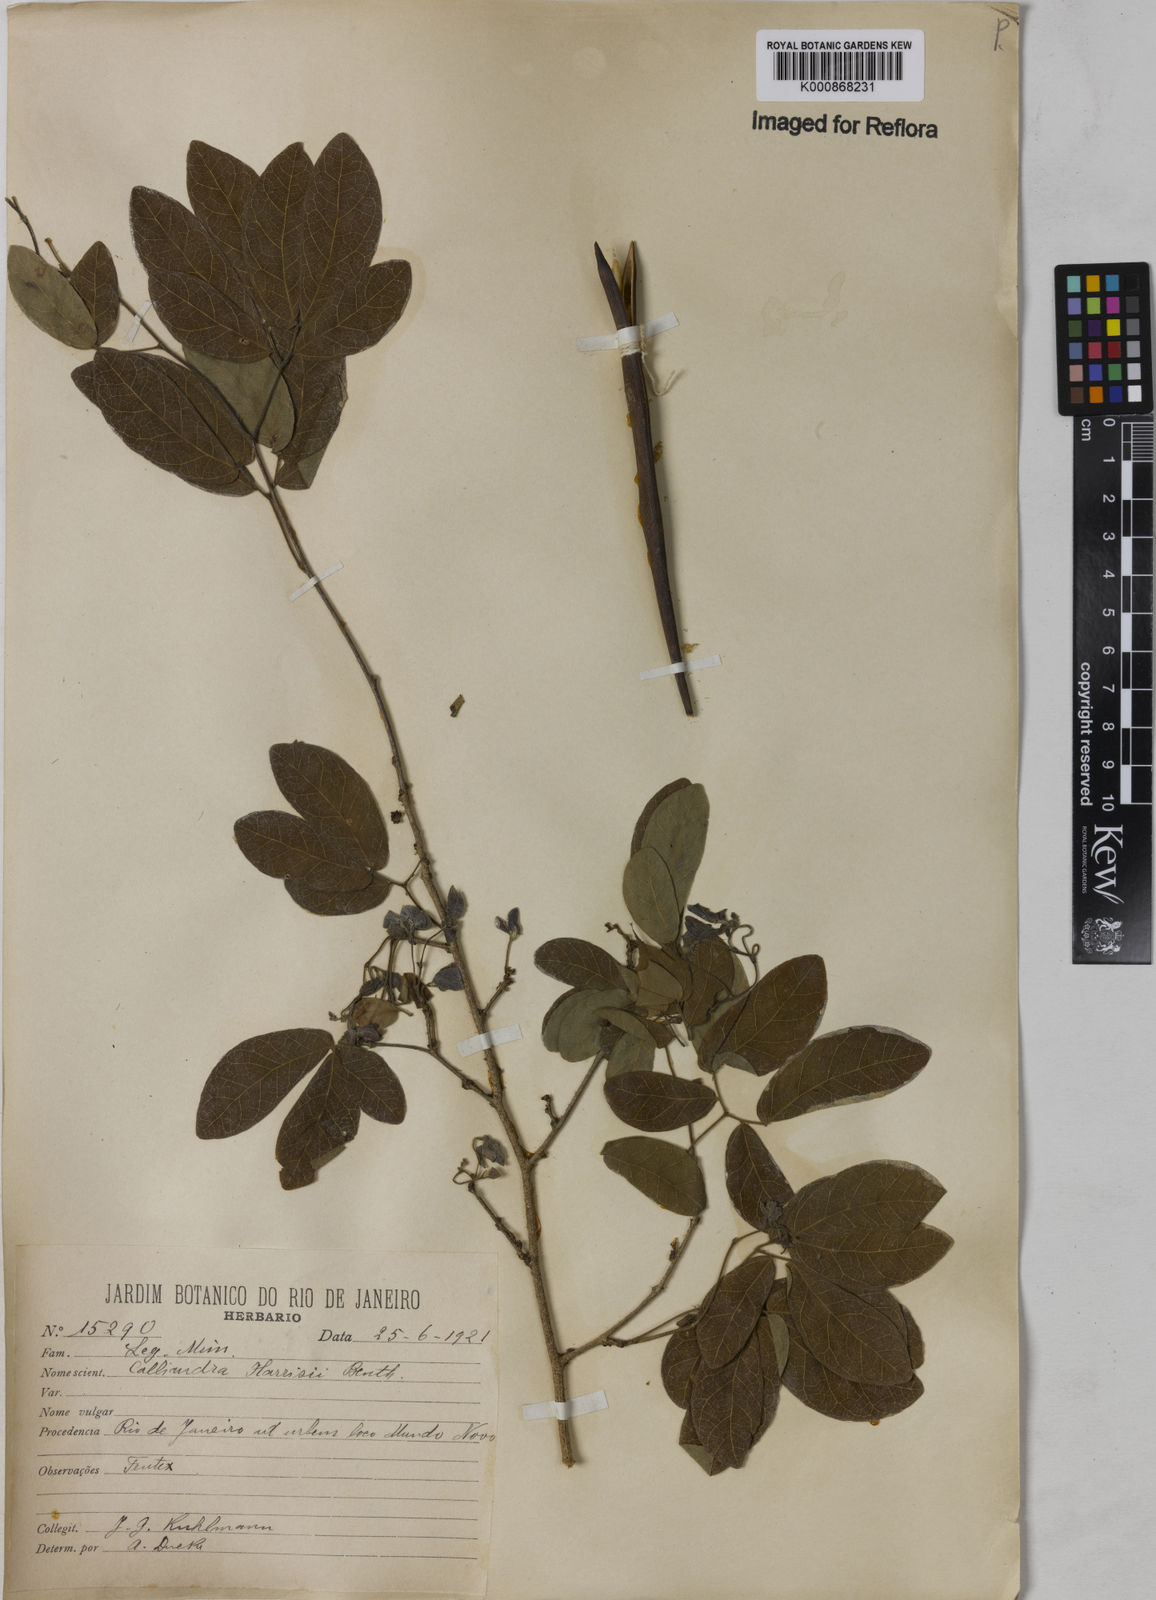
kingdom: Plantae
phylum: Tracheophyta
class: Magnoliopsida
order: Fabales
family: Fabaceae
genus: Calliandra
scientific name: Calliandra harrisii
